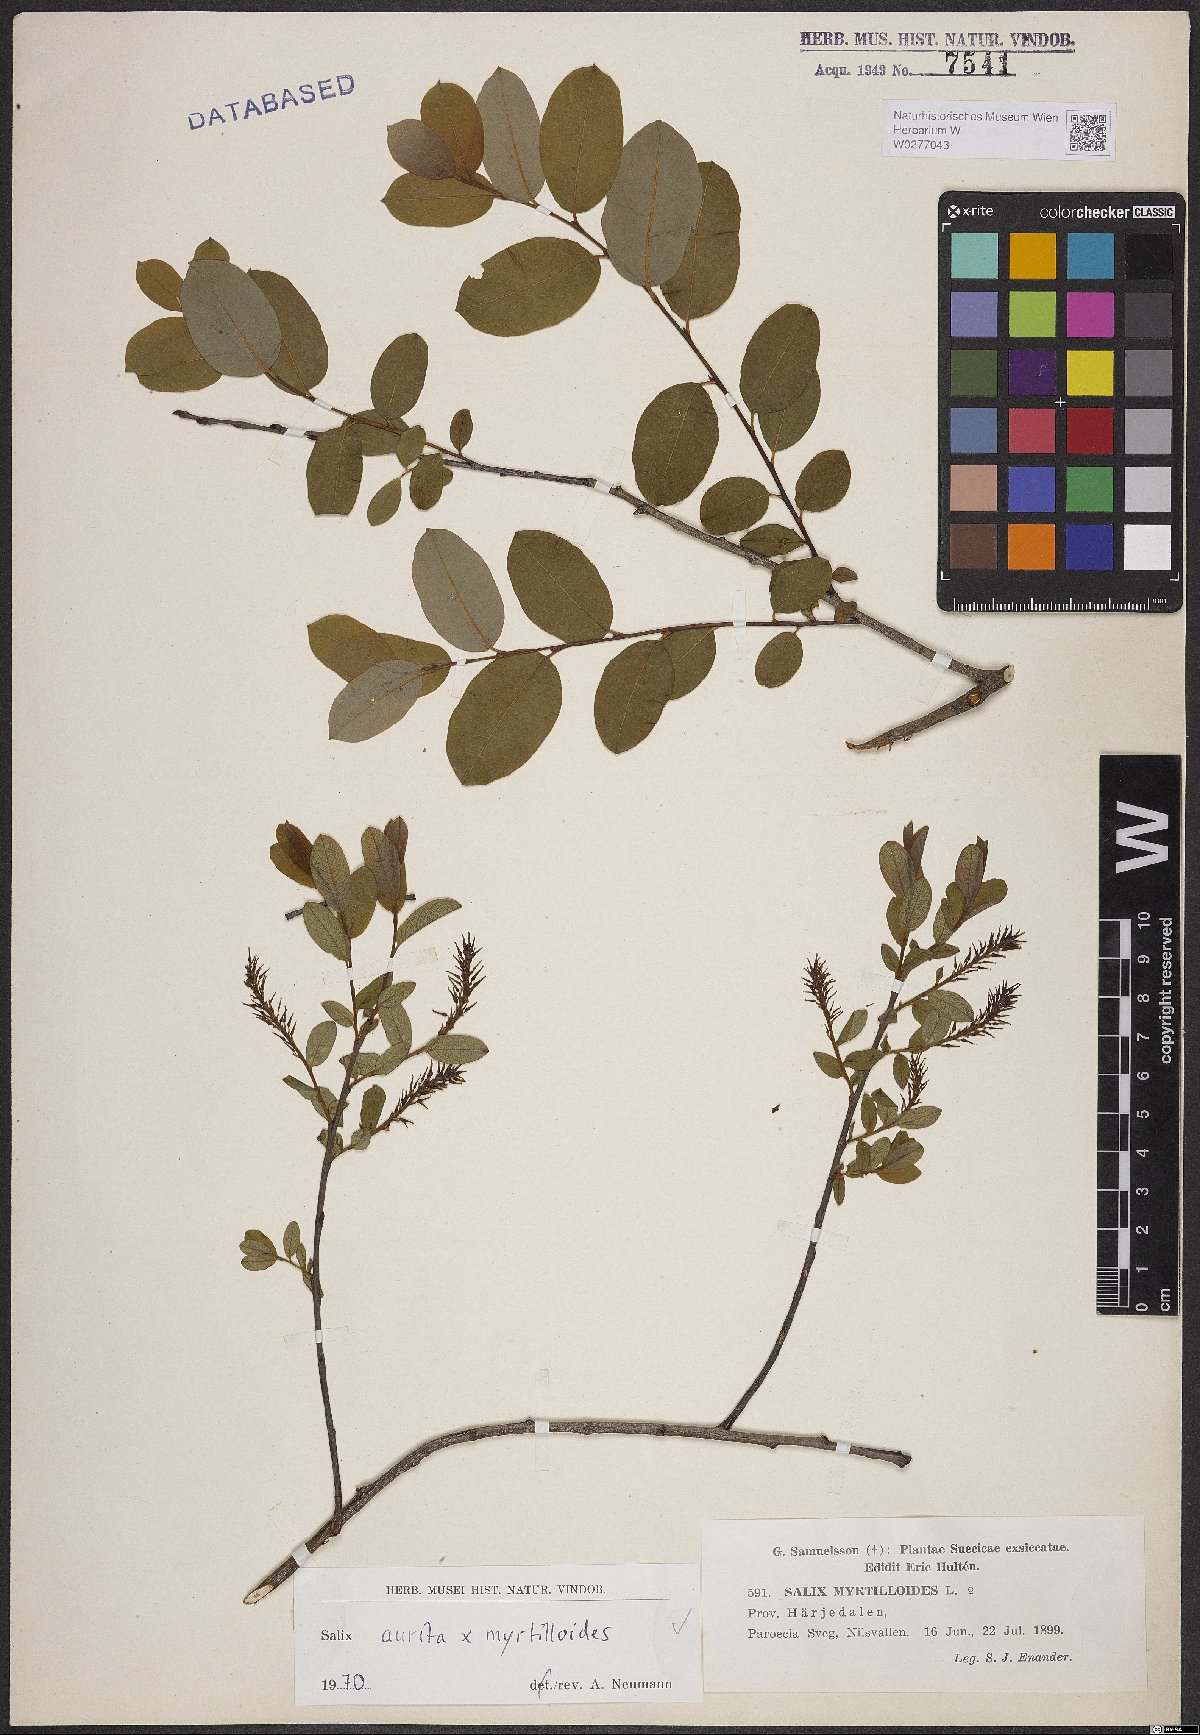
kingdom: Plantae
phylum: Tracheophyta
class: Magnoliopsida
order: Malpighiales
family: Salicaceae
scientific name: Salicaceae
